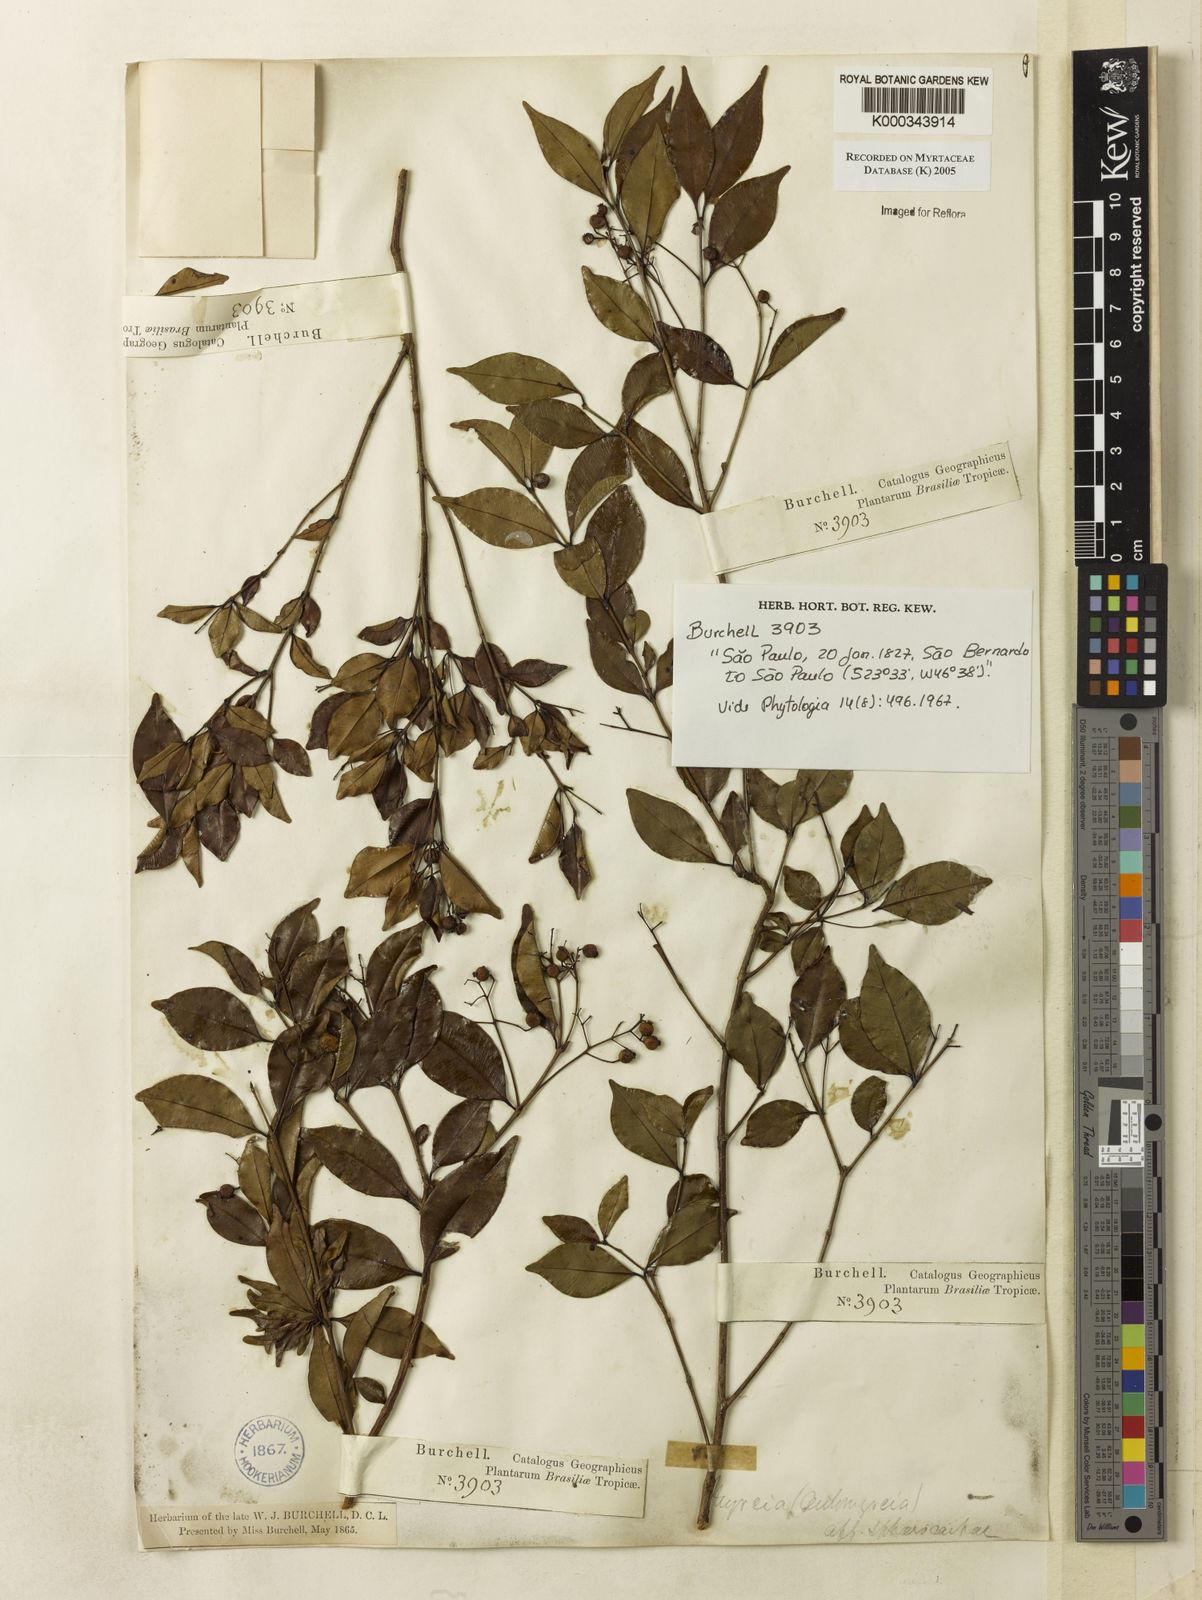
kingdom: Plantae
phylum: Tracheophyta
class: Magnoliopsida
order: Myrtales
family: Myrtaceae
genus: Myrcia
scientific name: Myrcia multiflora
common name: Pedra hume
